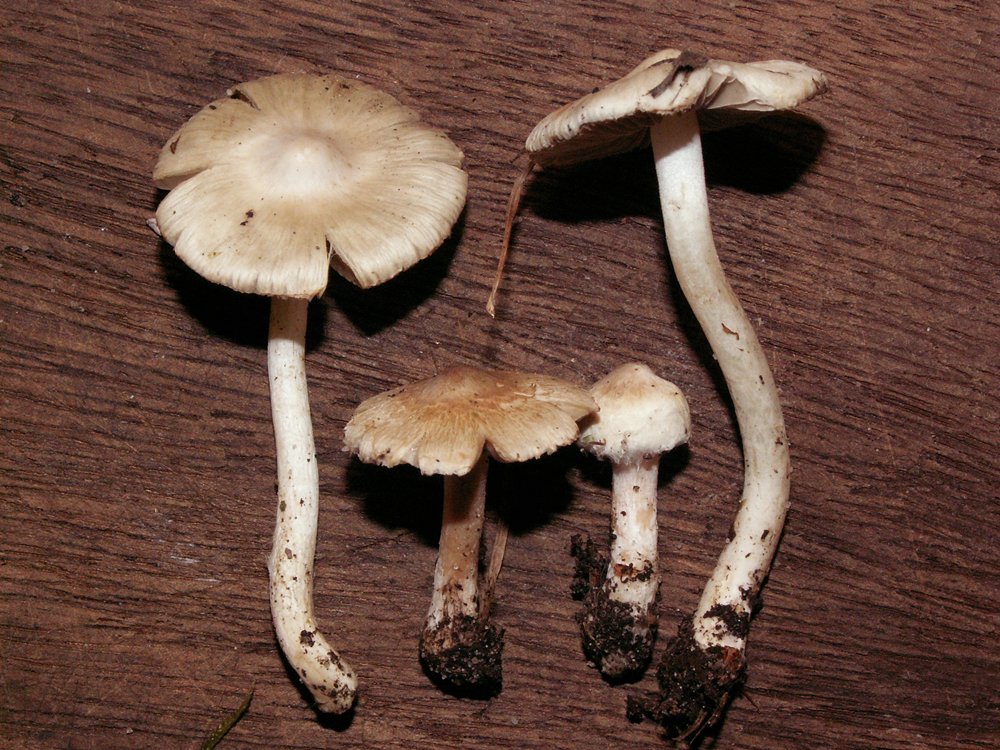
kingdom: Fungi
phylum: Basidiomycota
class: Agaricomycetes
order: Agaricales
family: Inocybaceae
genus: Inocybe
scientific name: Inocybe
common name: almindelig trævlhat
